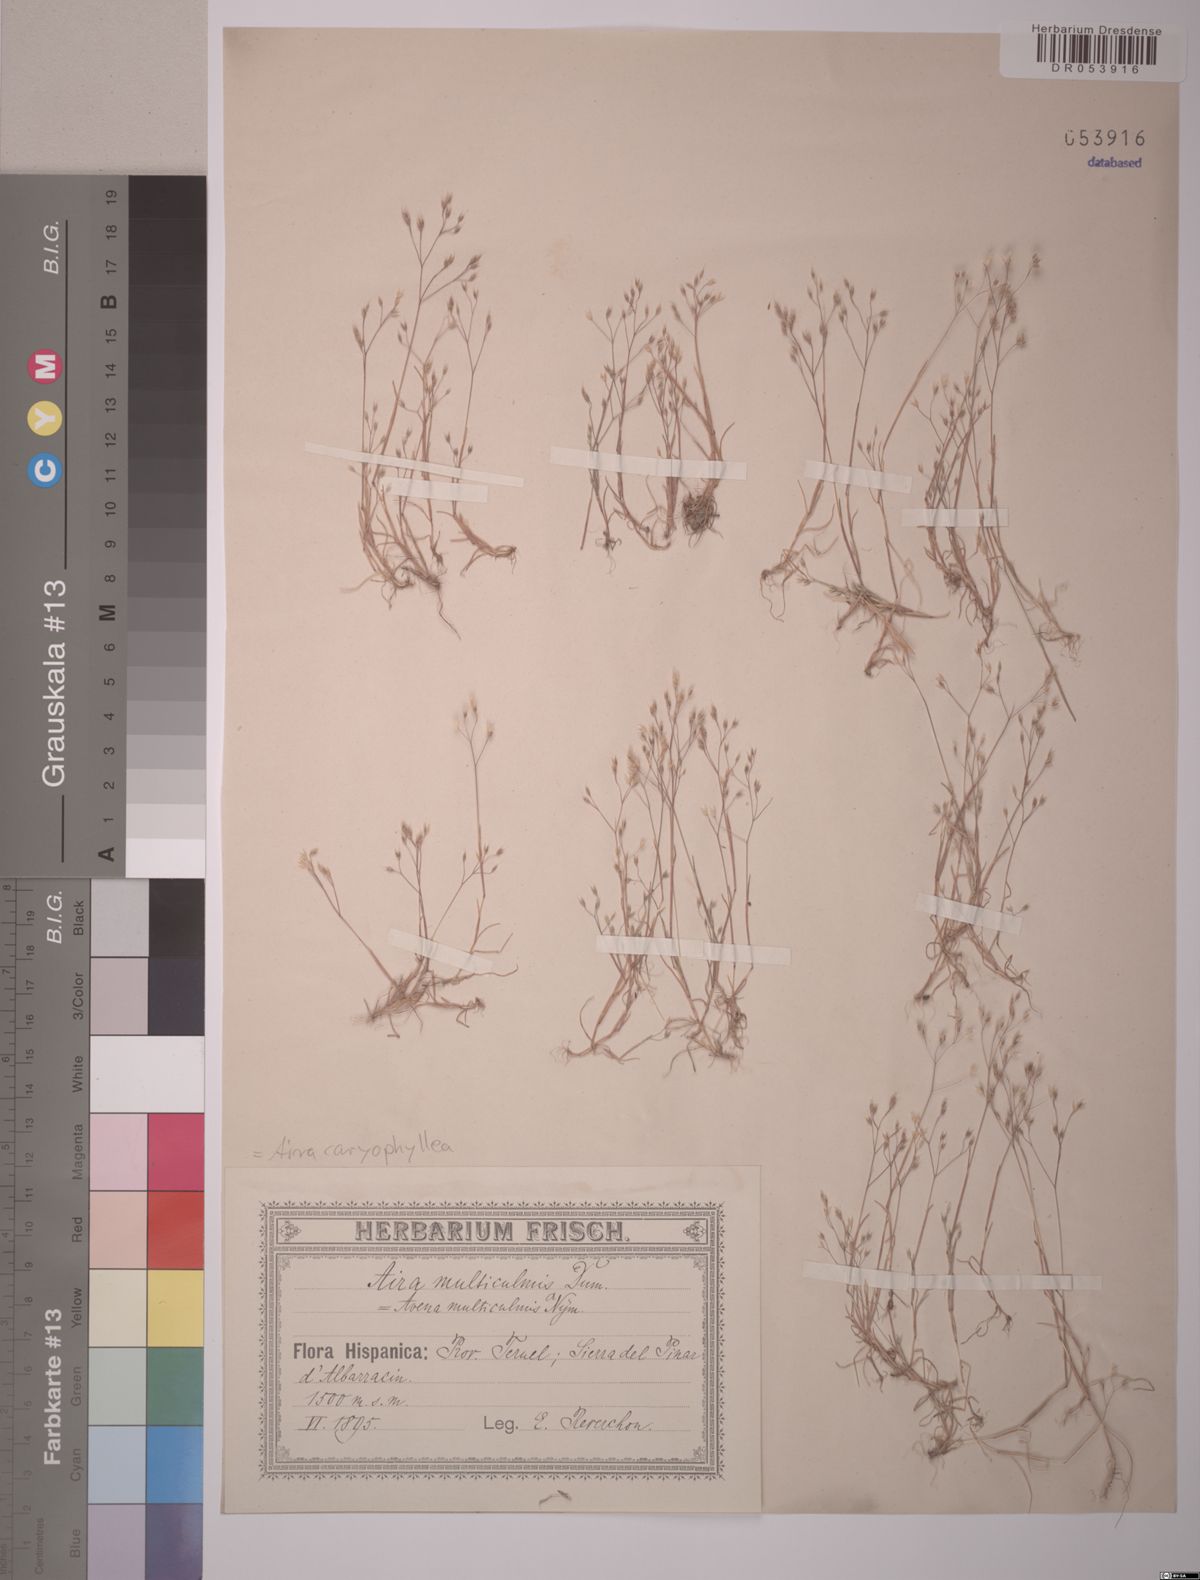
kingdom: Plantae
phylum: Tracheophyta
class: Liliopsida
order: Poales
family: Poaceae
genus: Aira
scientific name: Aira caryophyllea
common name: Silver hairgrass
